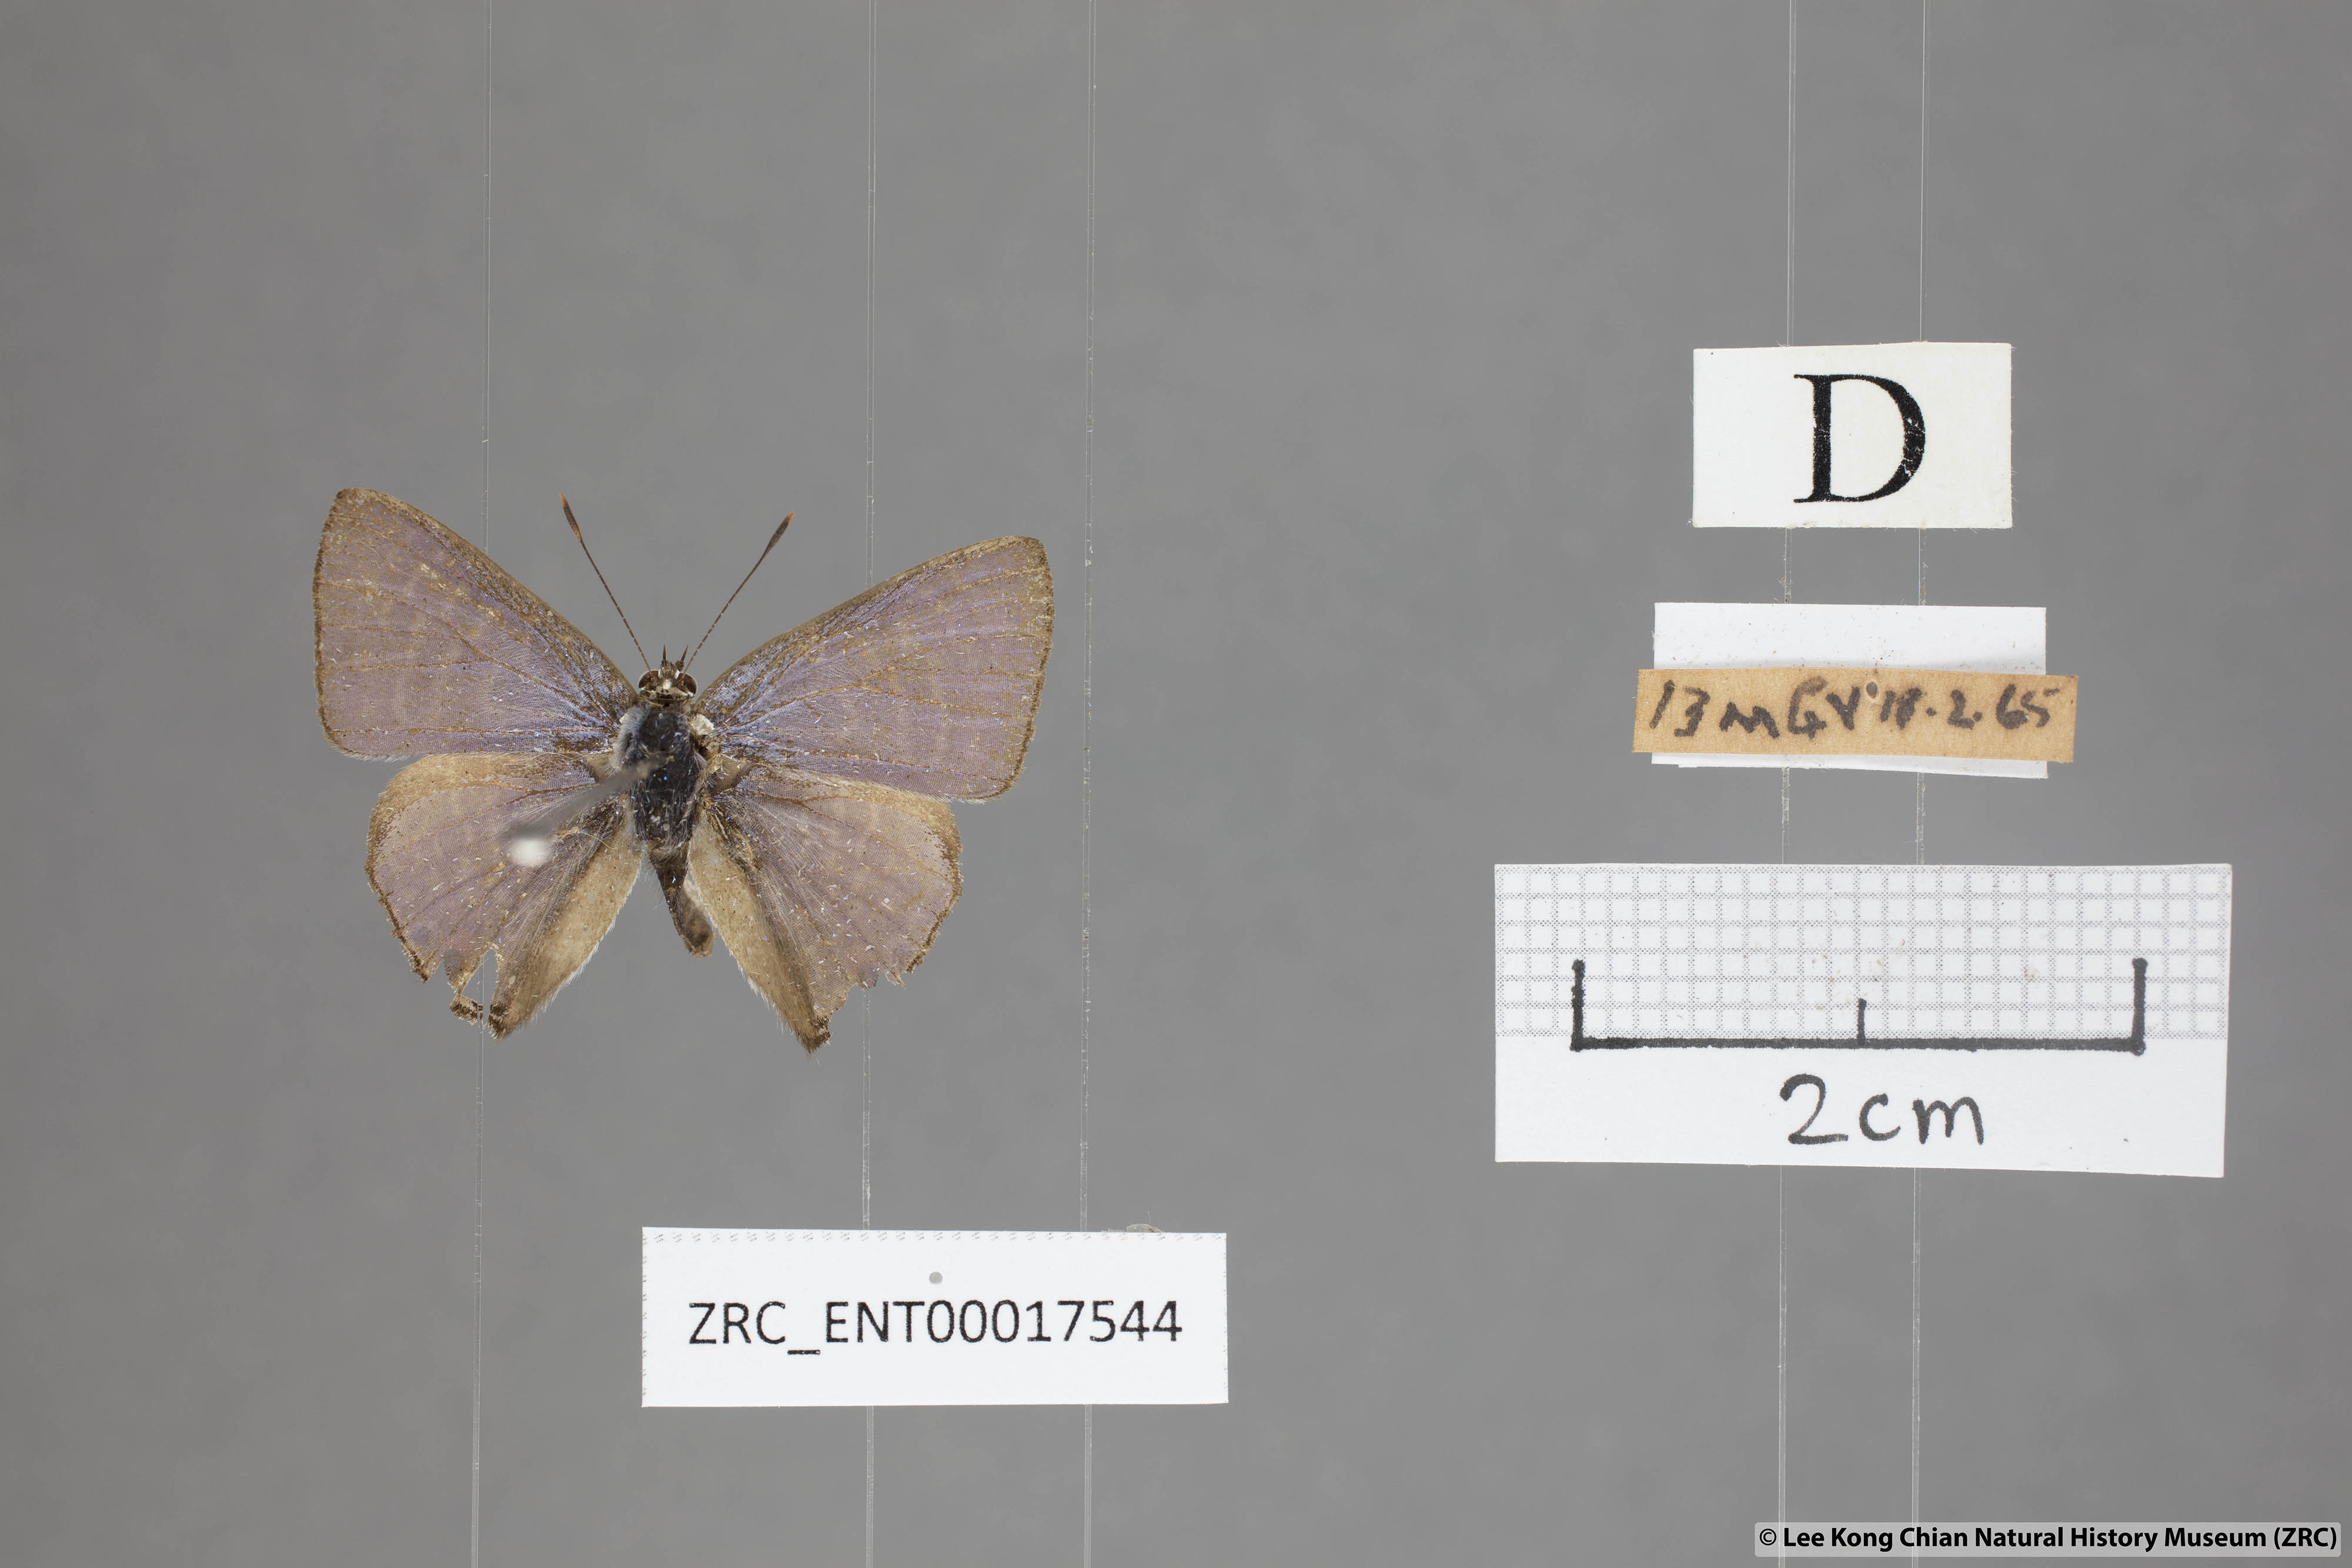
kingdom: Animalia
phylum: Arthropoda
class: Insecta
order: Lepidoptera
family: Lycaenidae
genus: Anthene
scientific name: Anthene licates
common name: White ciliate blue
